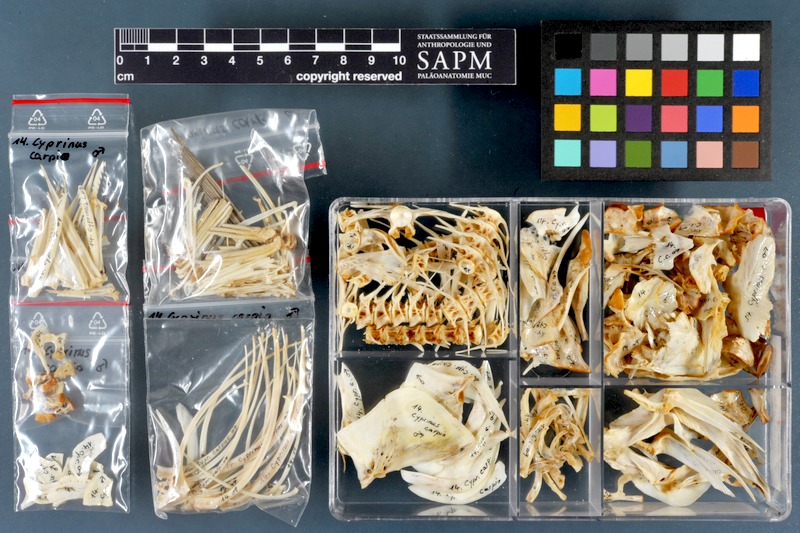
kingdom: Animalia
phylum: Chordata
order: Cypriniformes
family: Cyprinidae
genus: Cyprinus
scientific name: Cyprinus carpio
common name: Common carp
